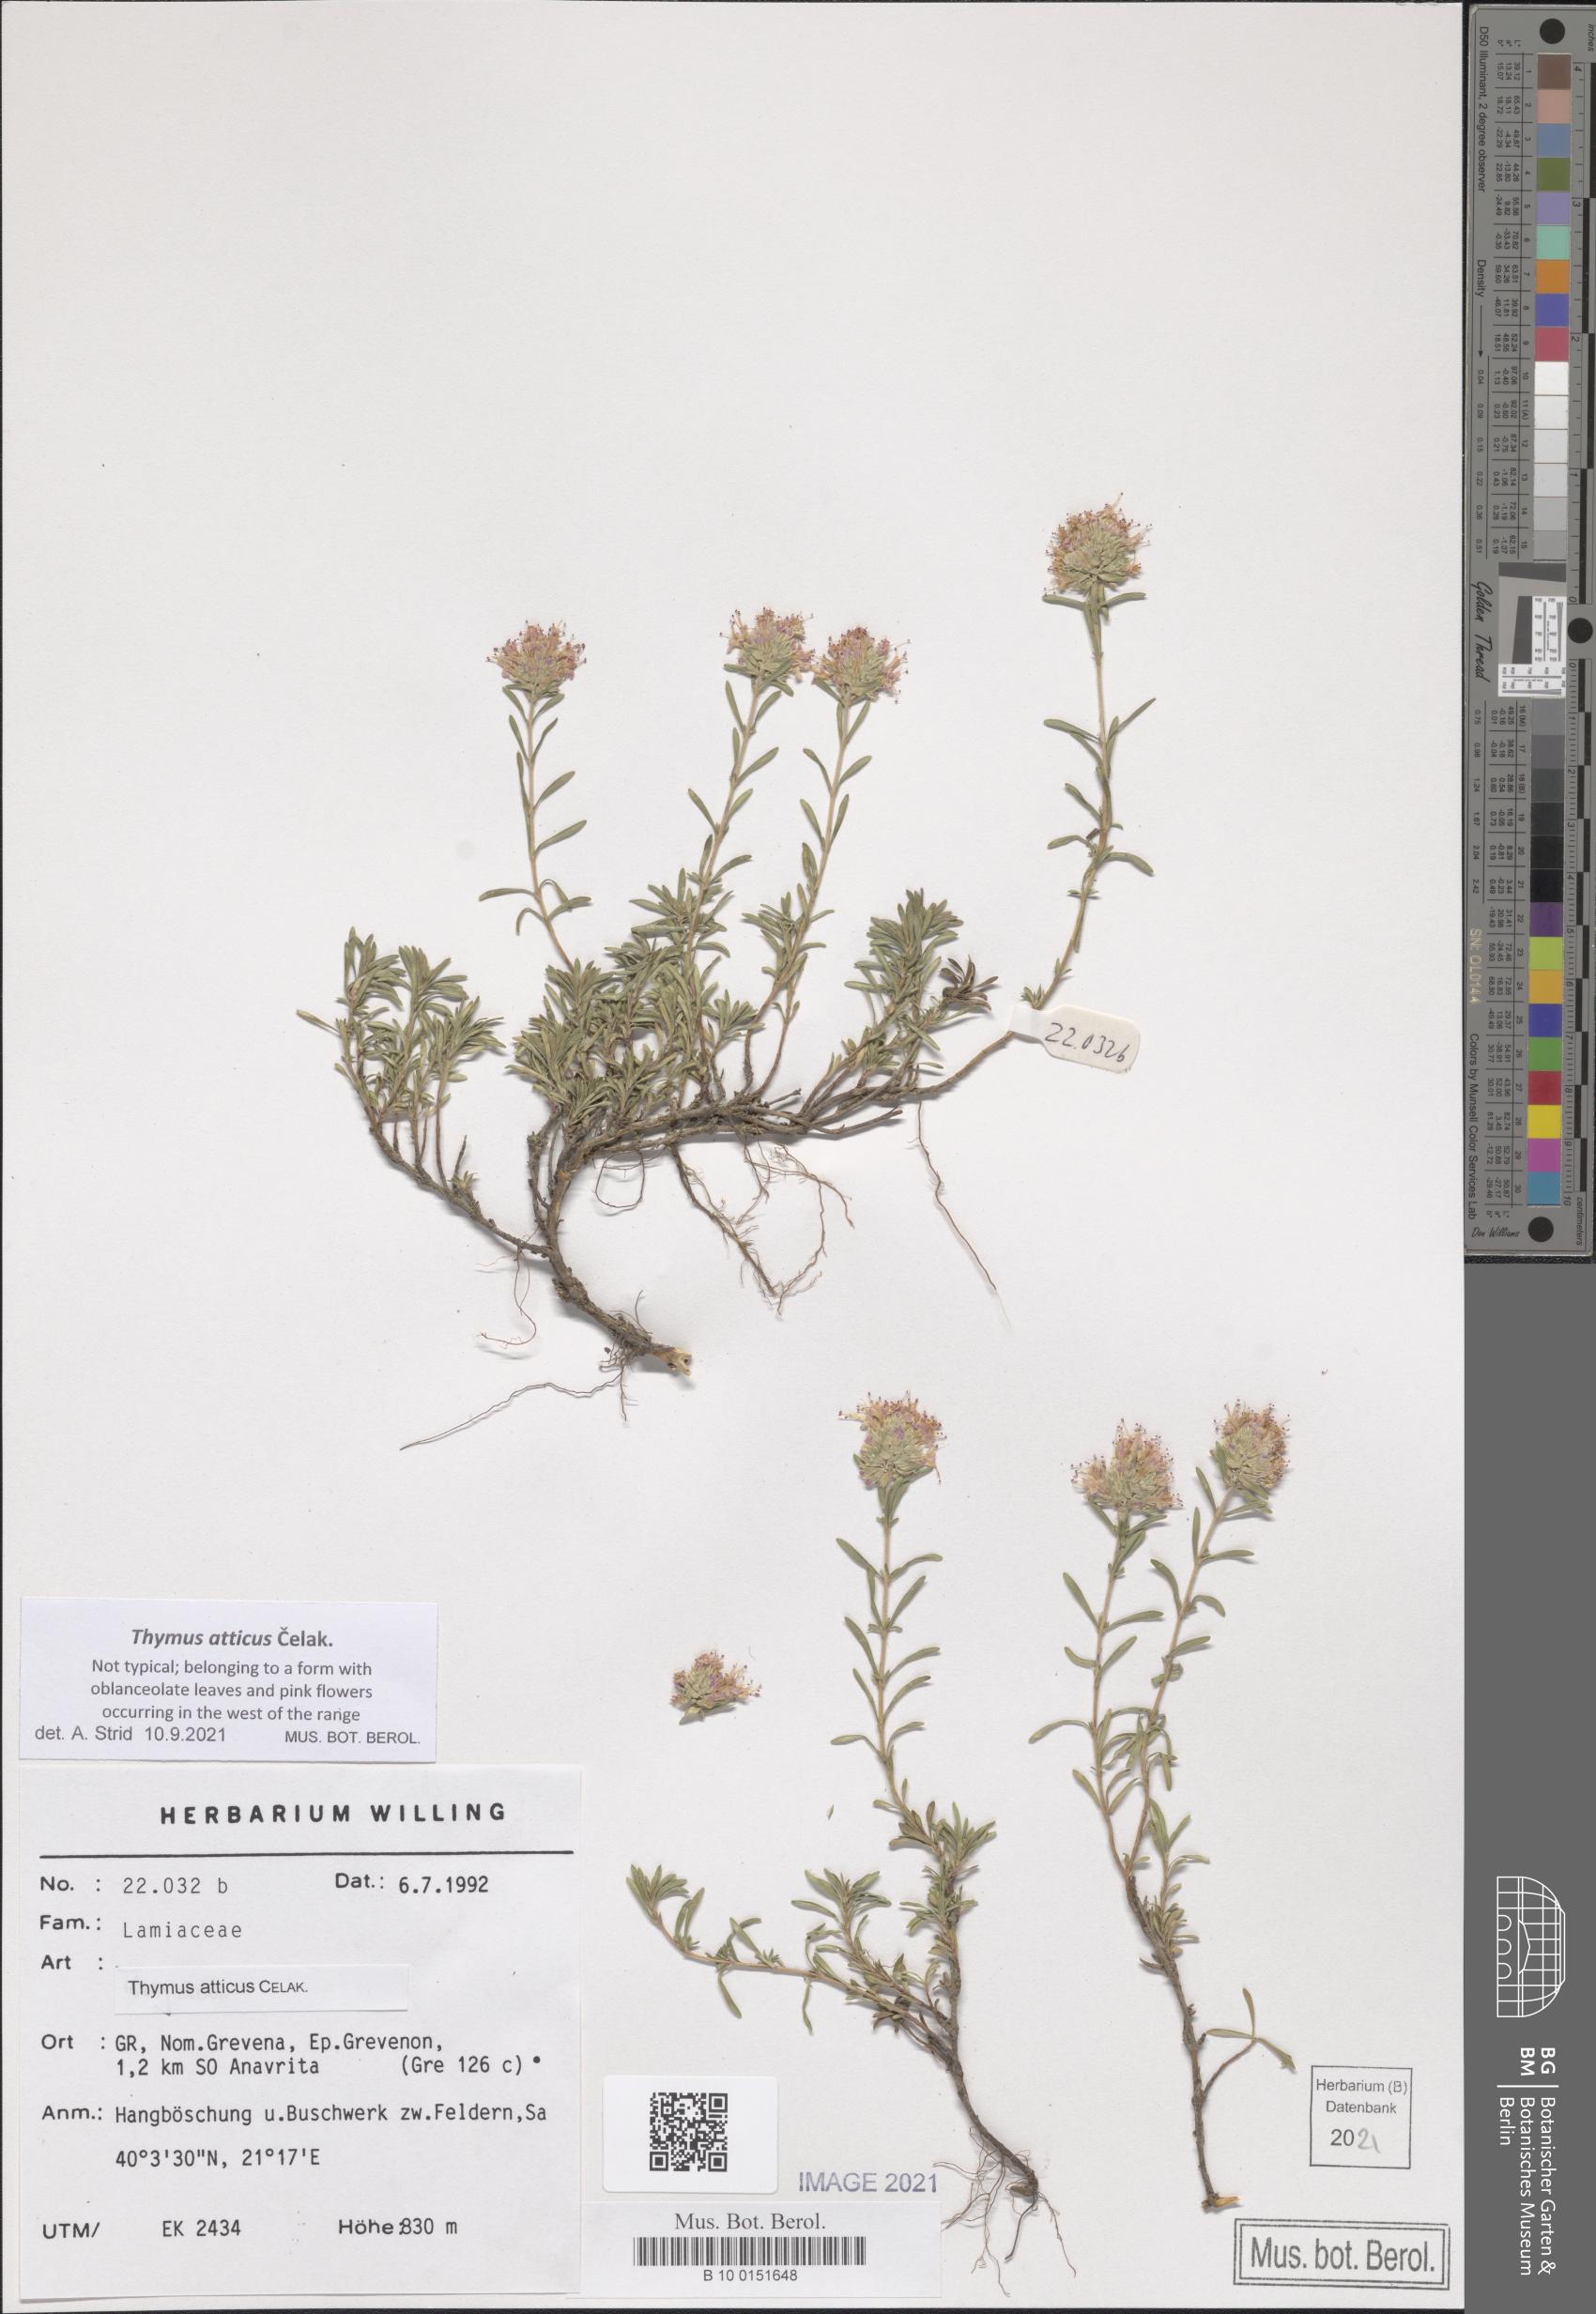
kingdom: Plantae
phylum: Tracheophyta
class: Magnoliopsida
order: Lamiales
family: Lamiaceae
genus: Thymus
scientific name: Thymus atticus
